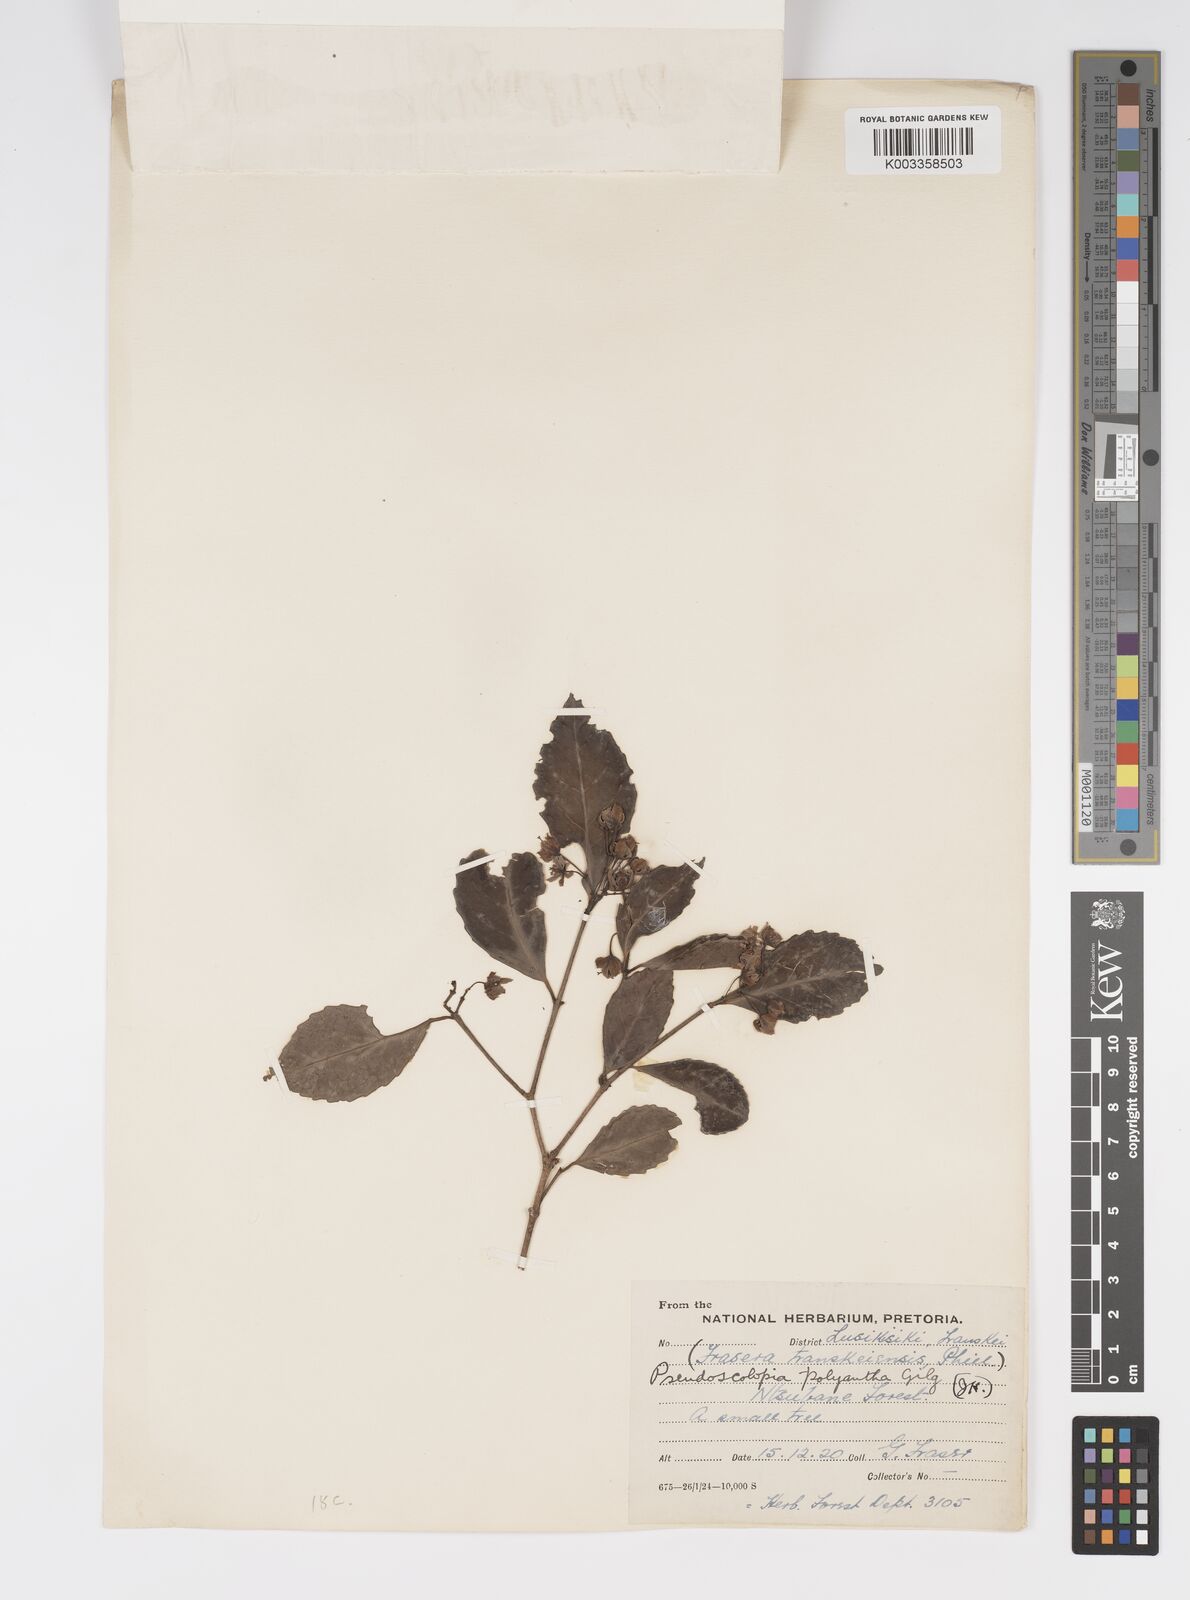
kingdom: Plantae
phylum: Tracheophyta
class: Magnoliopsida
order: Malpighiales
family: Salicaceae
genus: Pseudoscolopia
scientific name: Pseudoscolopia polyantha
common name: Sandstone red-stem
